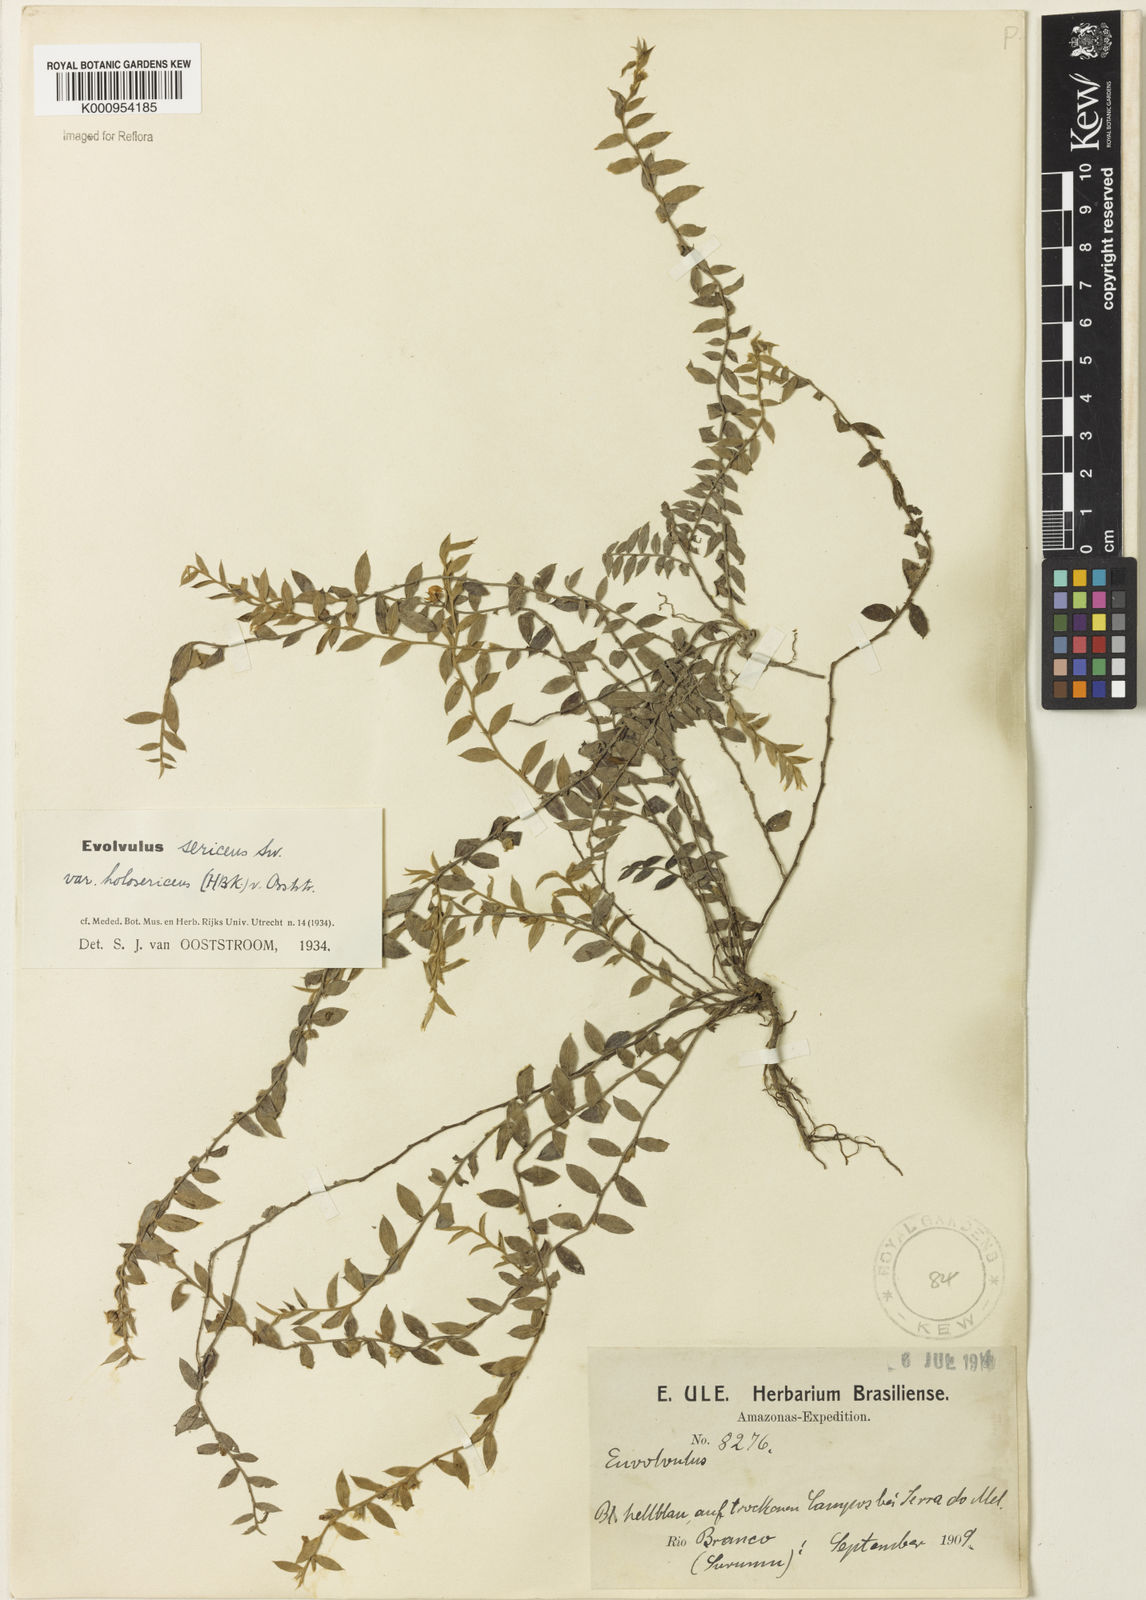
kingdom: Plantae
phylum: Tracheophyta
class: Magnoliopsida
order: Solanales
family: Convolvulaceae
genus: Evolvulus
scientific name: Evolvulus sericeus
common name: Blue dots
